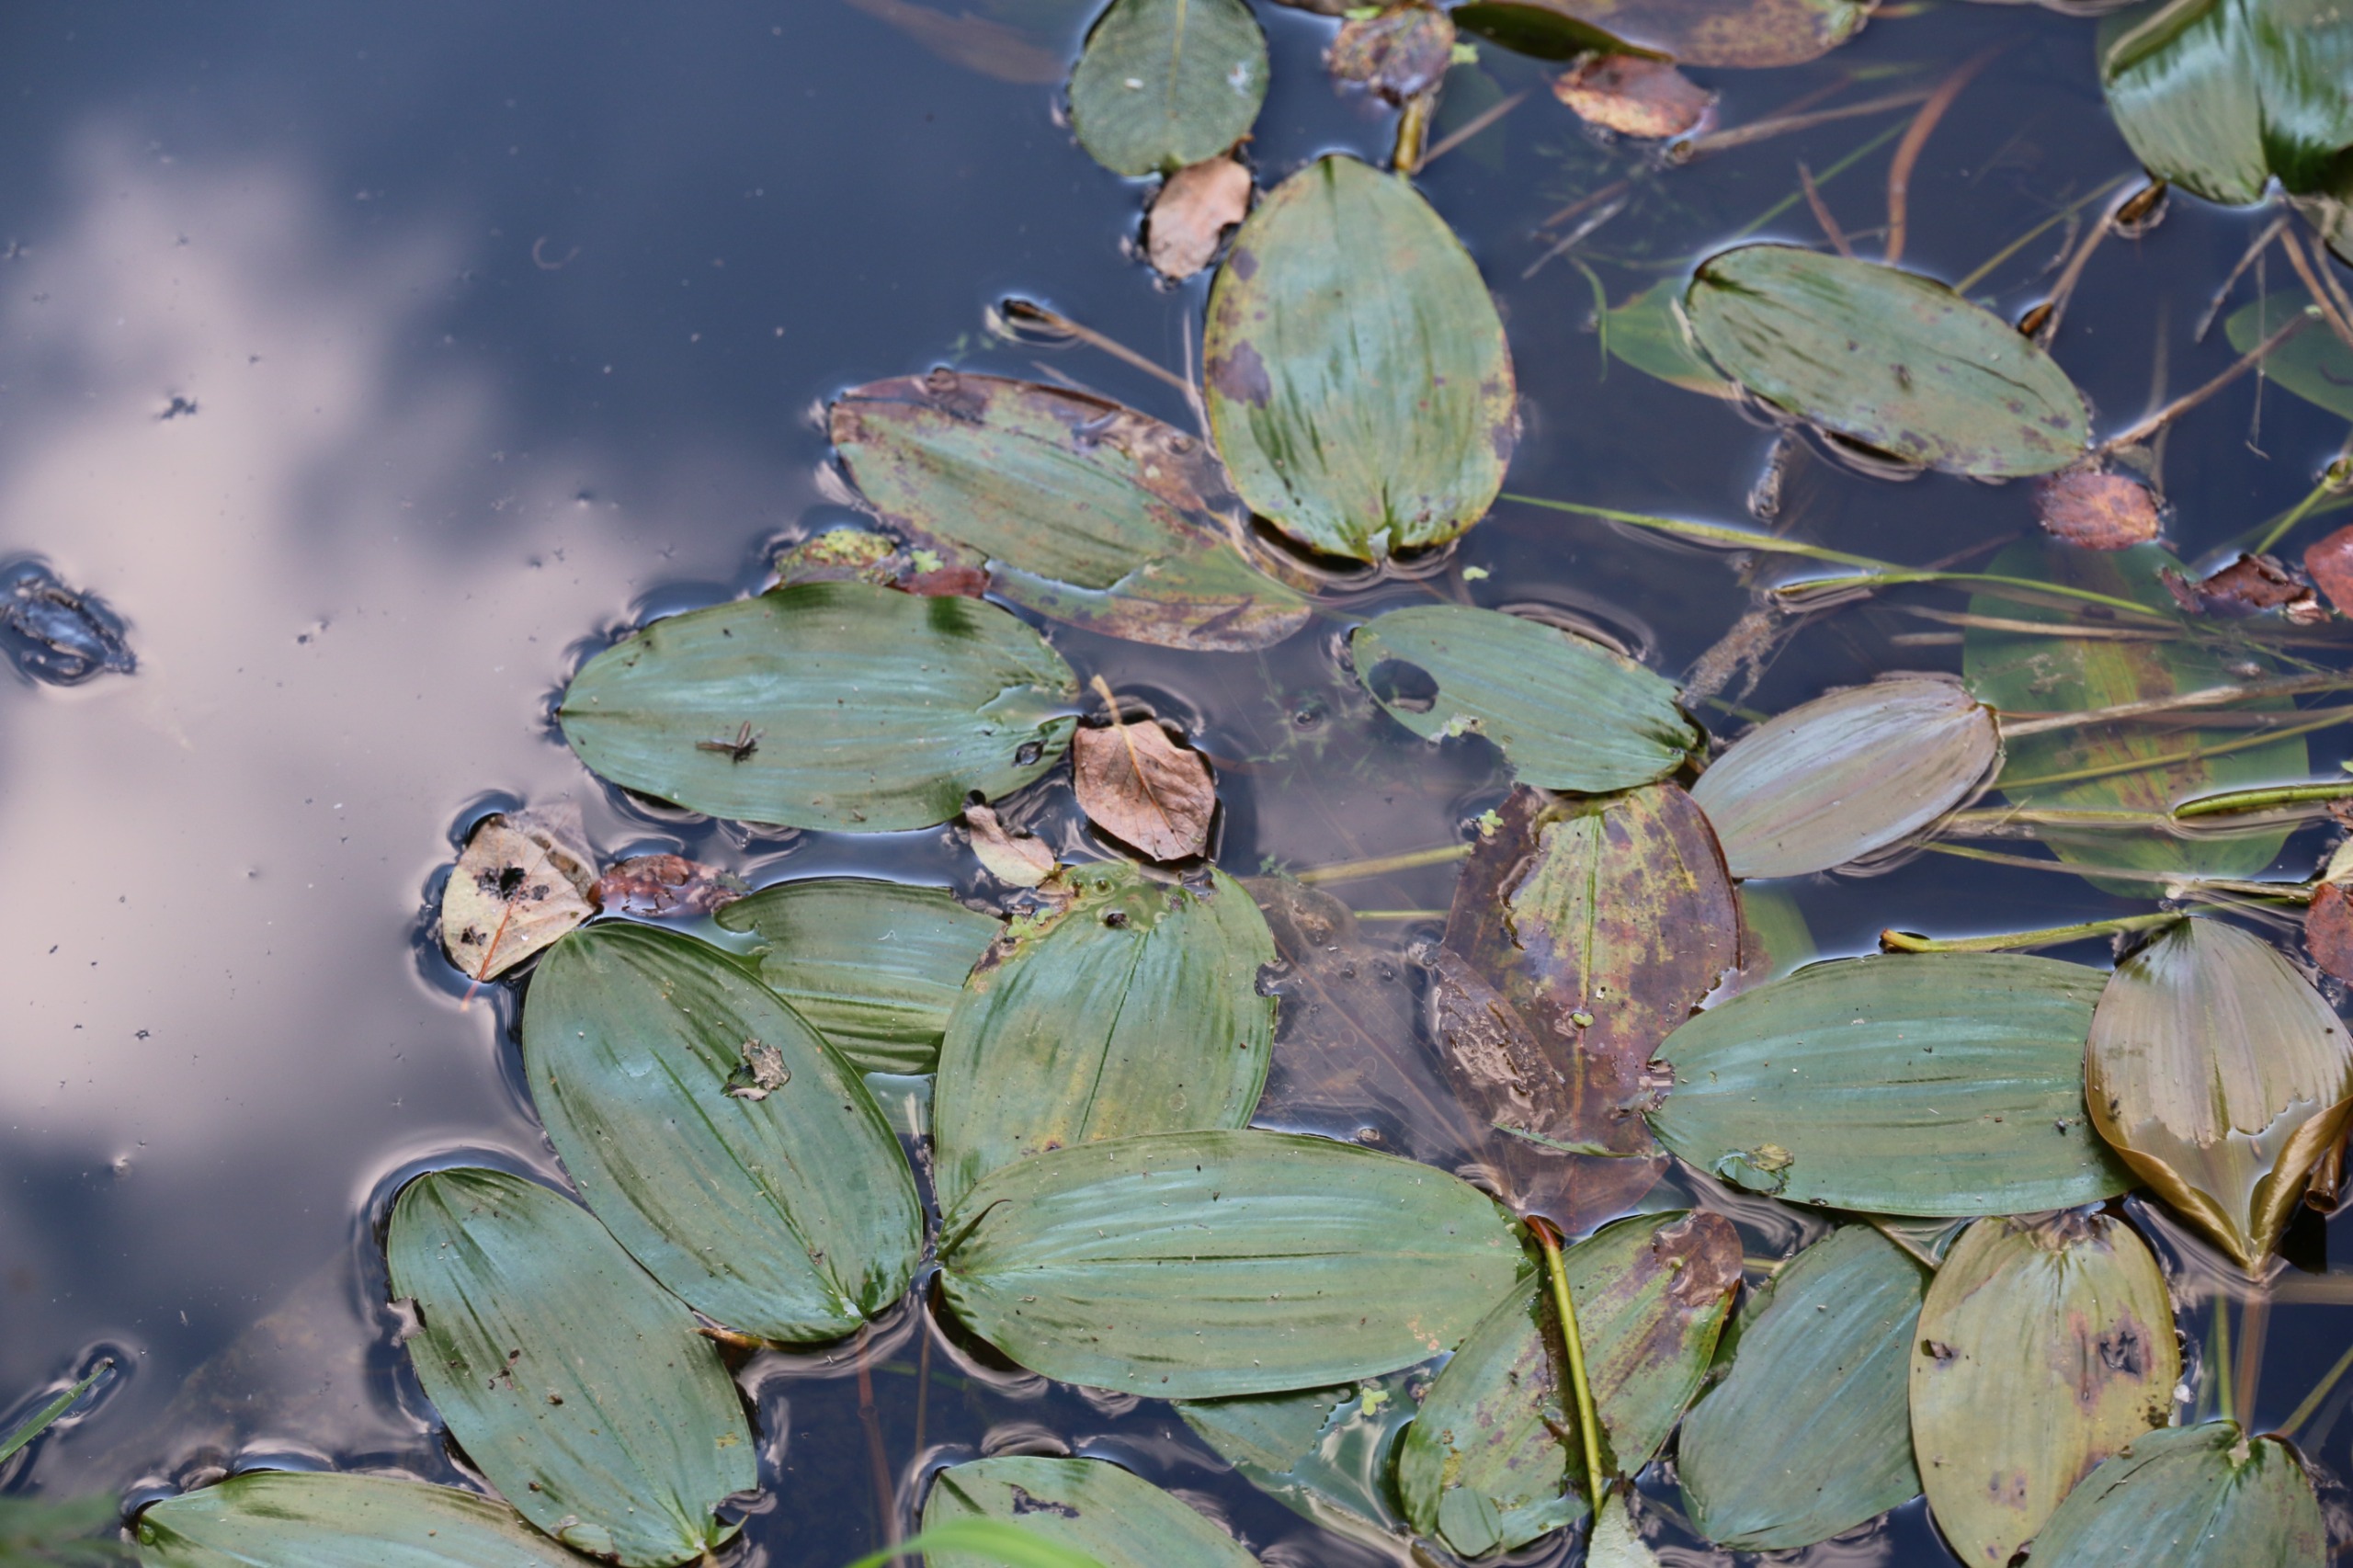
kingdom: Plantae
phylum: Tracheophyta
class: Liliopsida
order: Alismatales
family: Potamogetonaceae
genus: Potamogeton
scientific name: Potamogeton natans
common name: Svømmende vandaks
